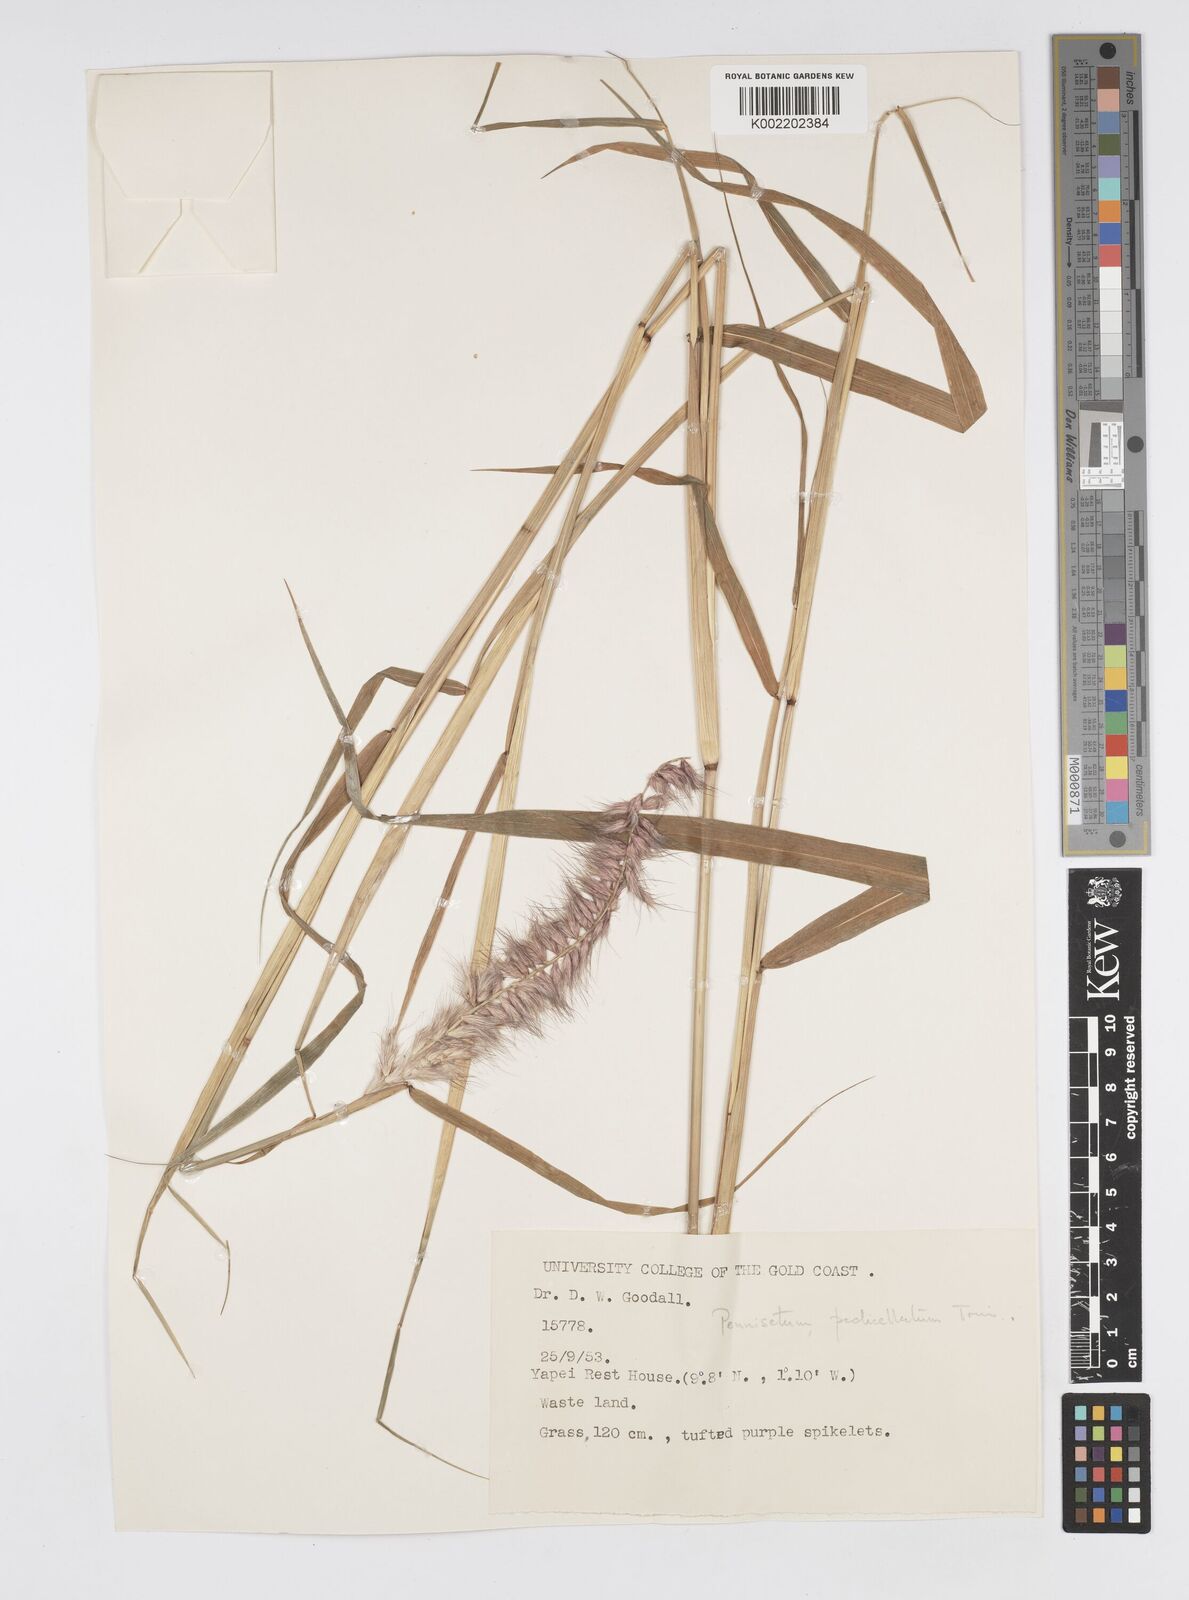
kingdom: Plantae
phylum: Tracheophyta
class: Liliopsida
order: Poales
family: Poaceae
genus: Cenchrus
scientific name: Cenchrus pedicellatus
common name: Hairy fountain grass
